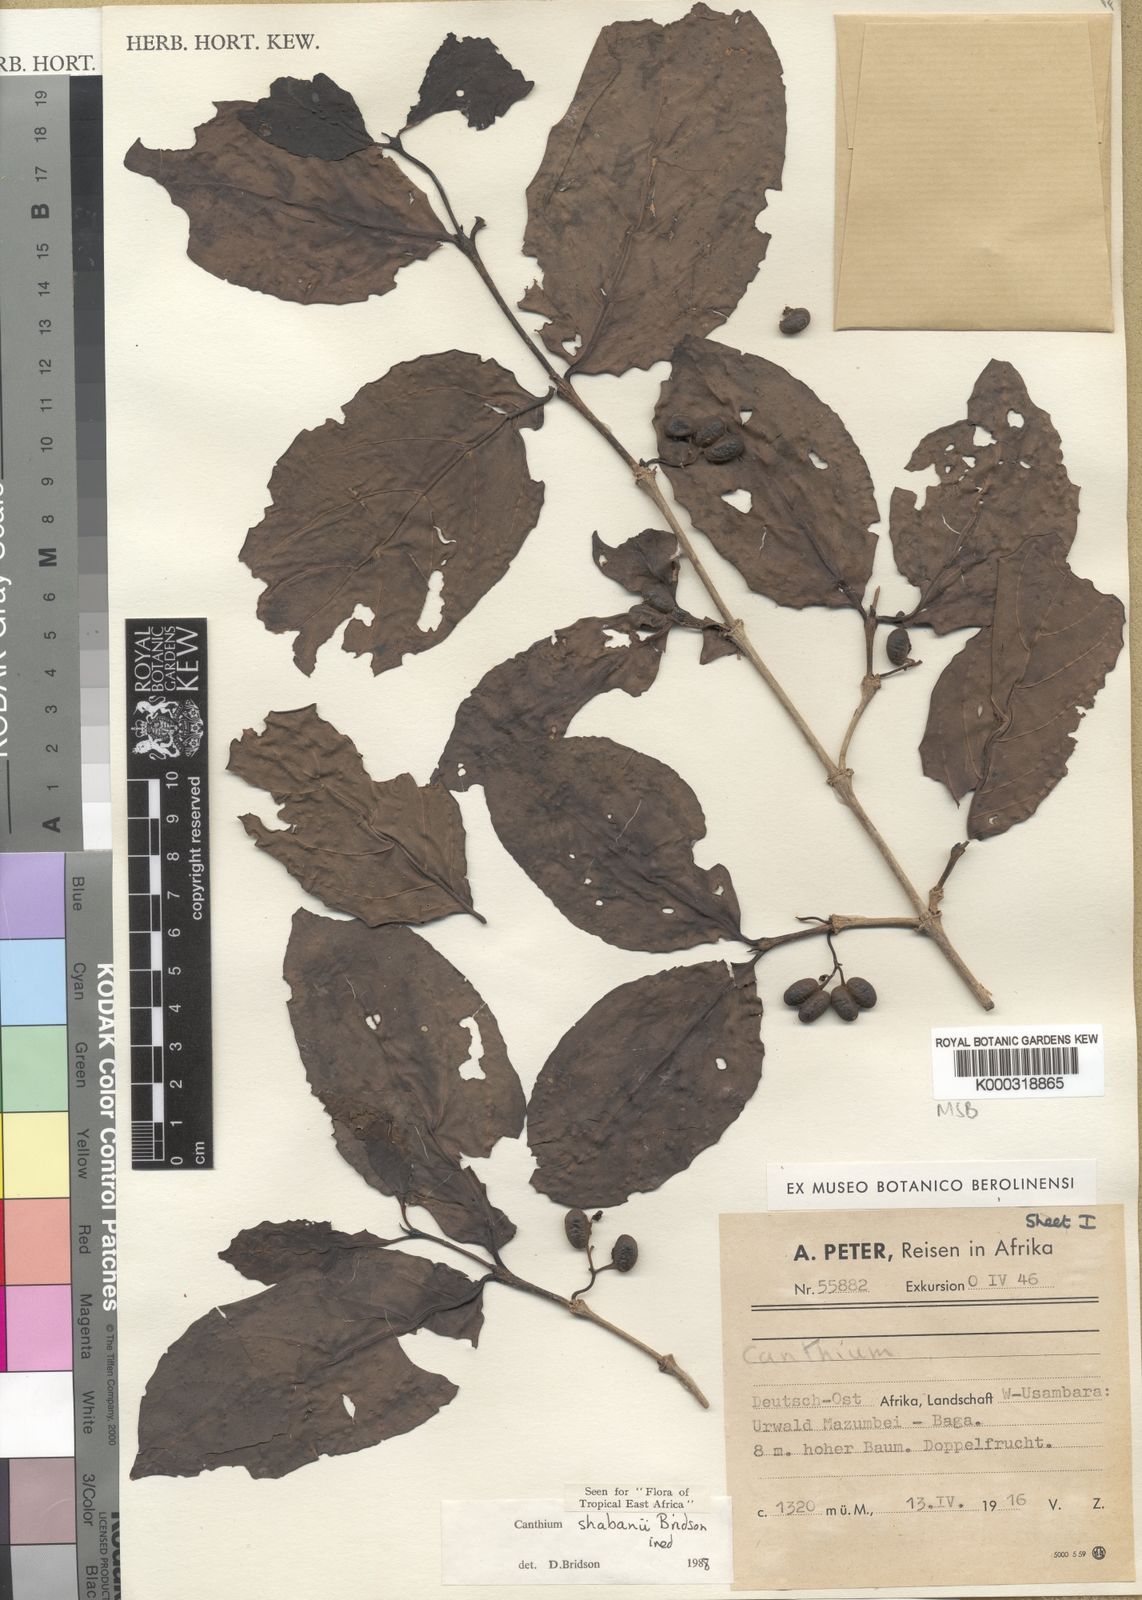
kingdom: Plantae
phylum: Tracheophyta
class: Magnoliopsida
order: Gentianales
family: Rubiaceae
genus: Afrocanthium
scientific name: Afrocanthium shabanii
